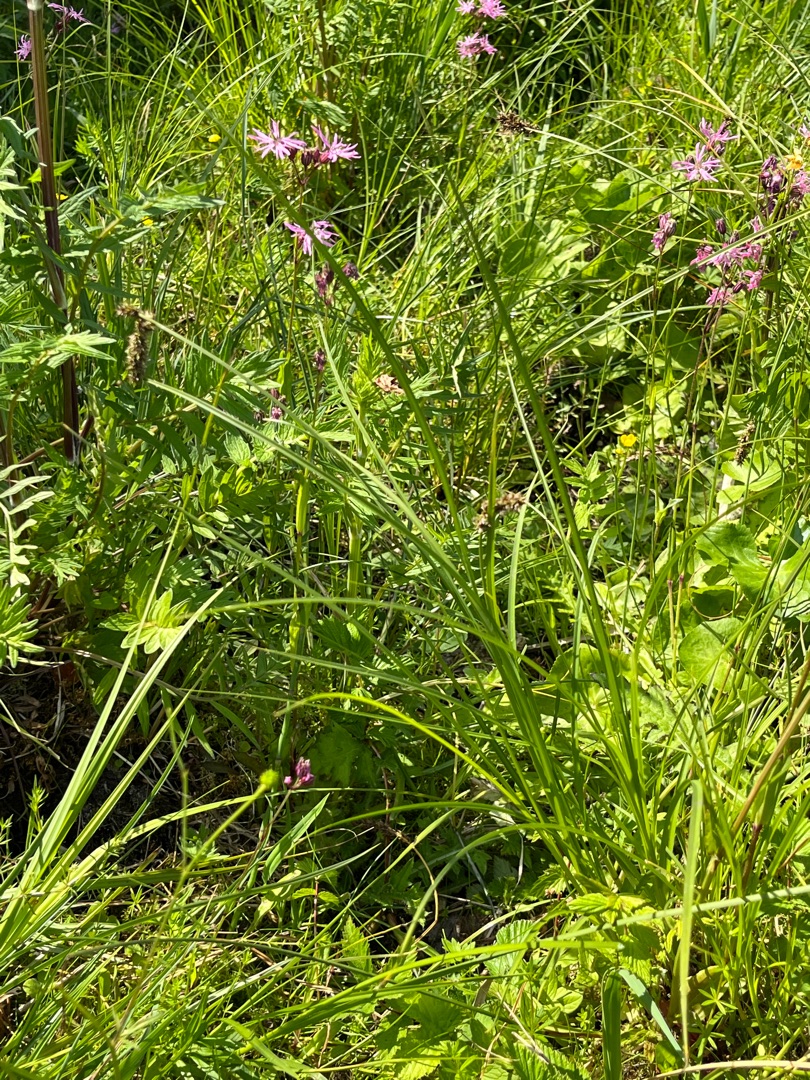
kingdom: Plantae
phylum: Tracheophyta
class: Liliopsida
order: Poales
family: Cyperaceae
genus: Carex
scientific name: Carex diandra
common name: Trindstænglet star
